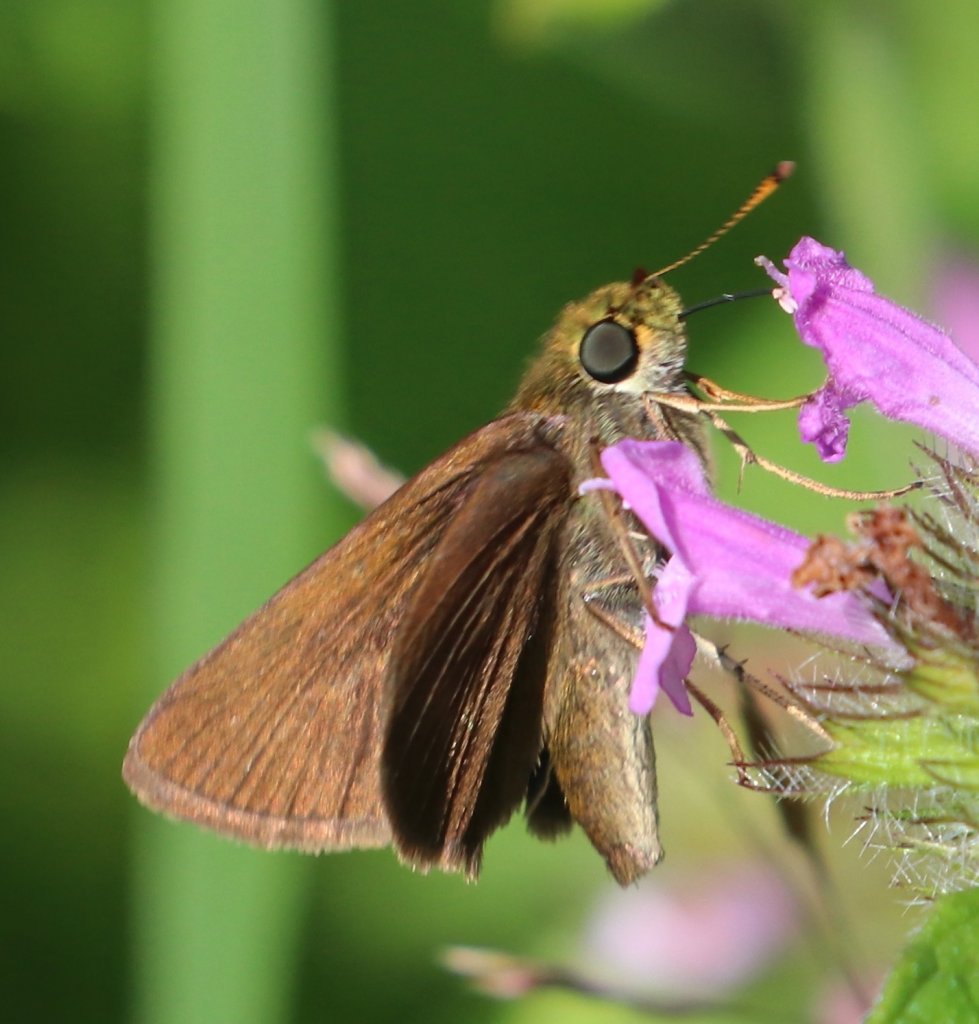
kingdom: Animalia
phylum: Arthropoda
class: Insecta
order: Lepidoptera
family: Hesperiidae
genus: Euphyes
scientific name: Euphyes vestris
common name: Dun Skipper
